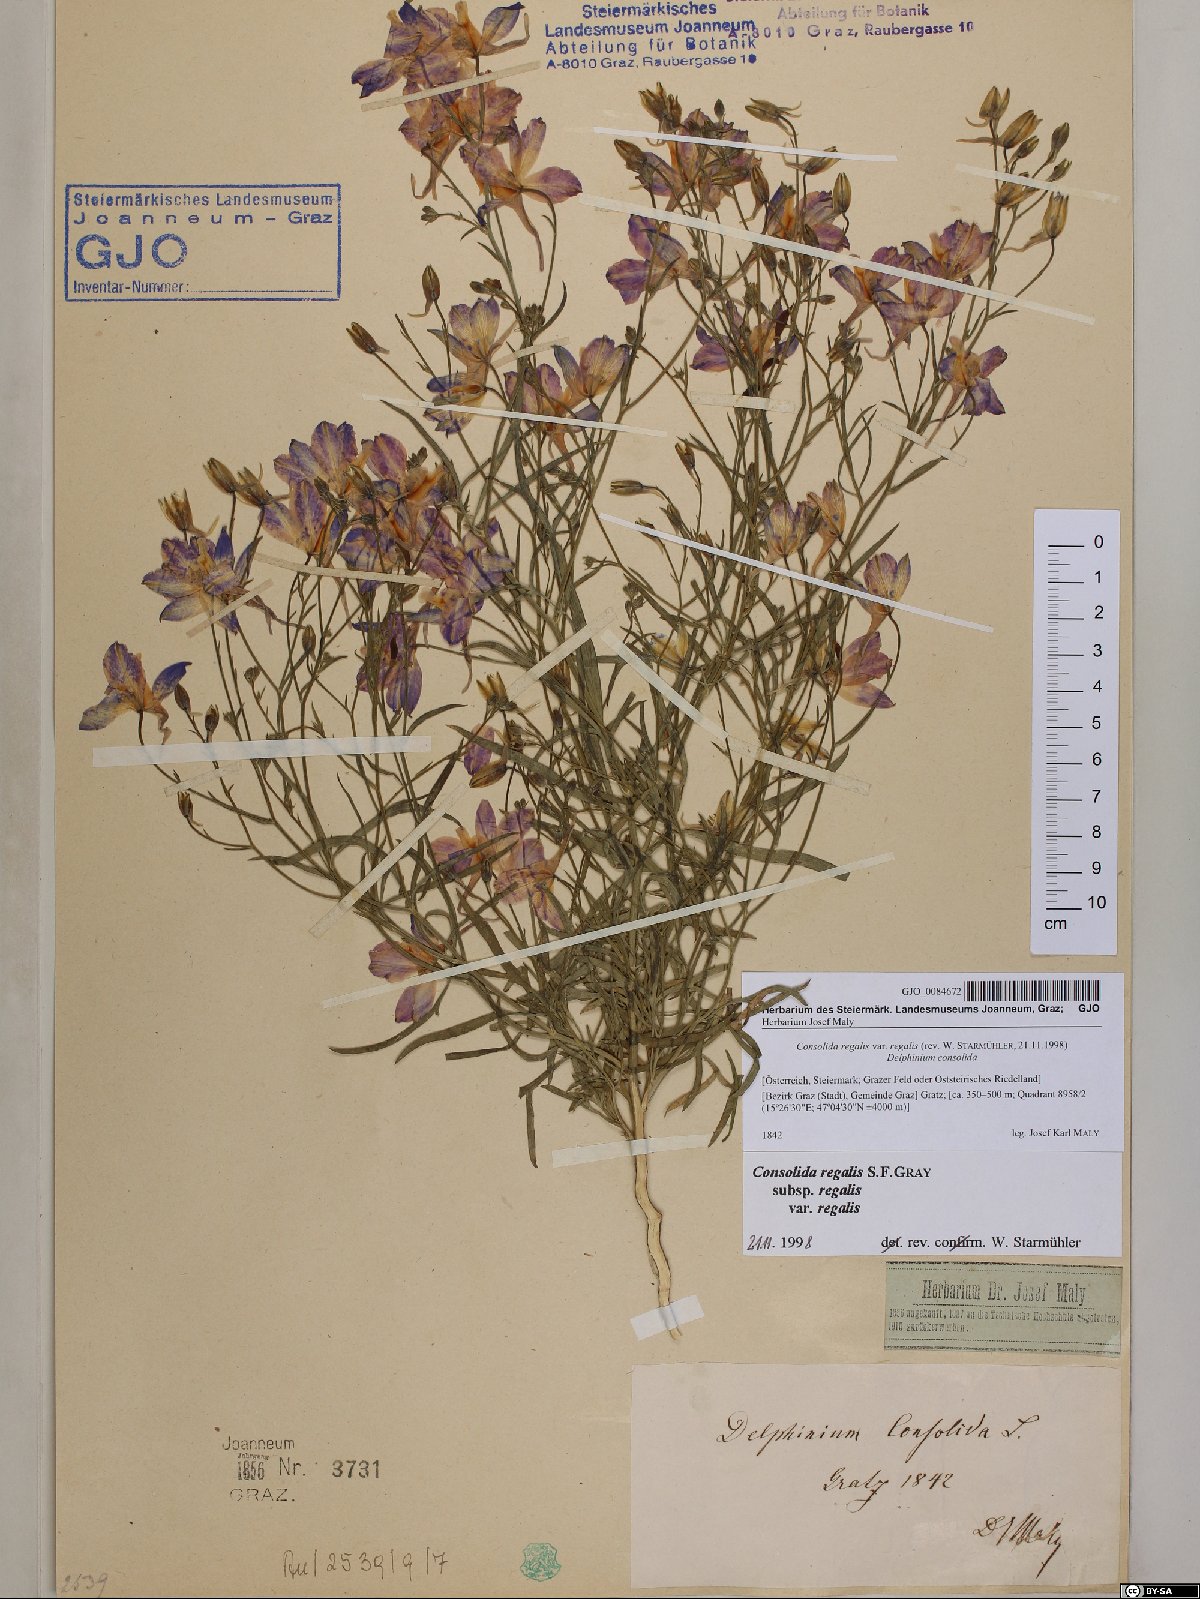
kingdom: Plantae
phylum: Tracheophyta
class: Magnoliopsida
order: Ranunculales
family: Ranunculaceae
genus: Delphinium
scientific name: Delphinium consolida
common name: Branching larkspur
